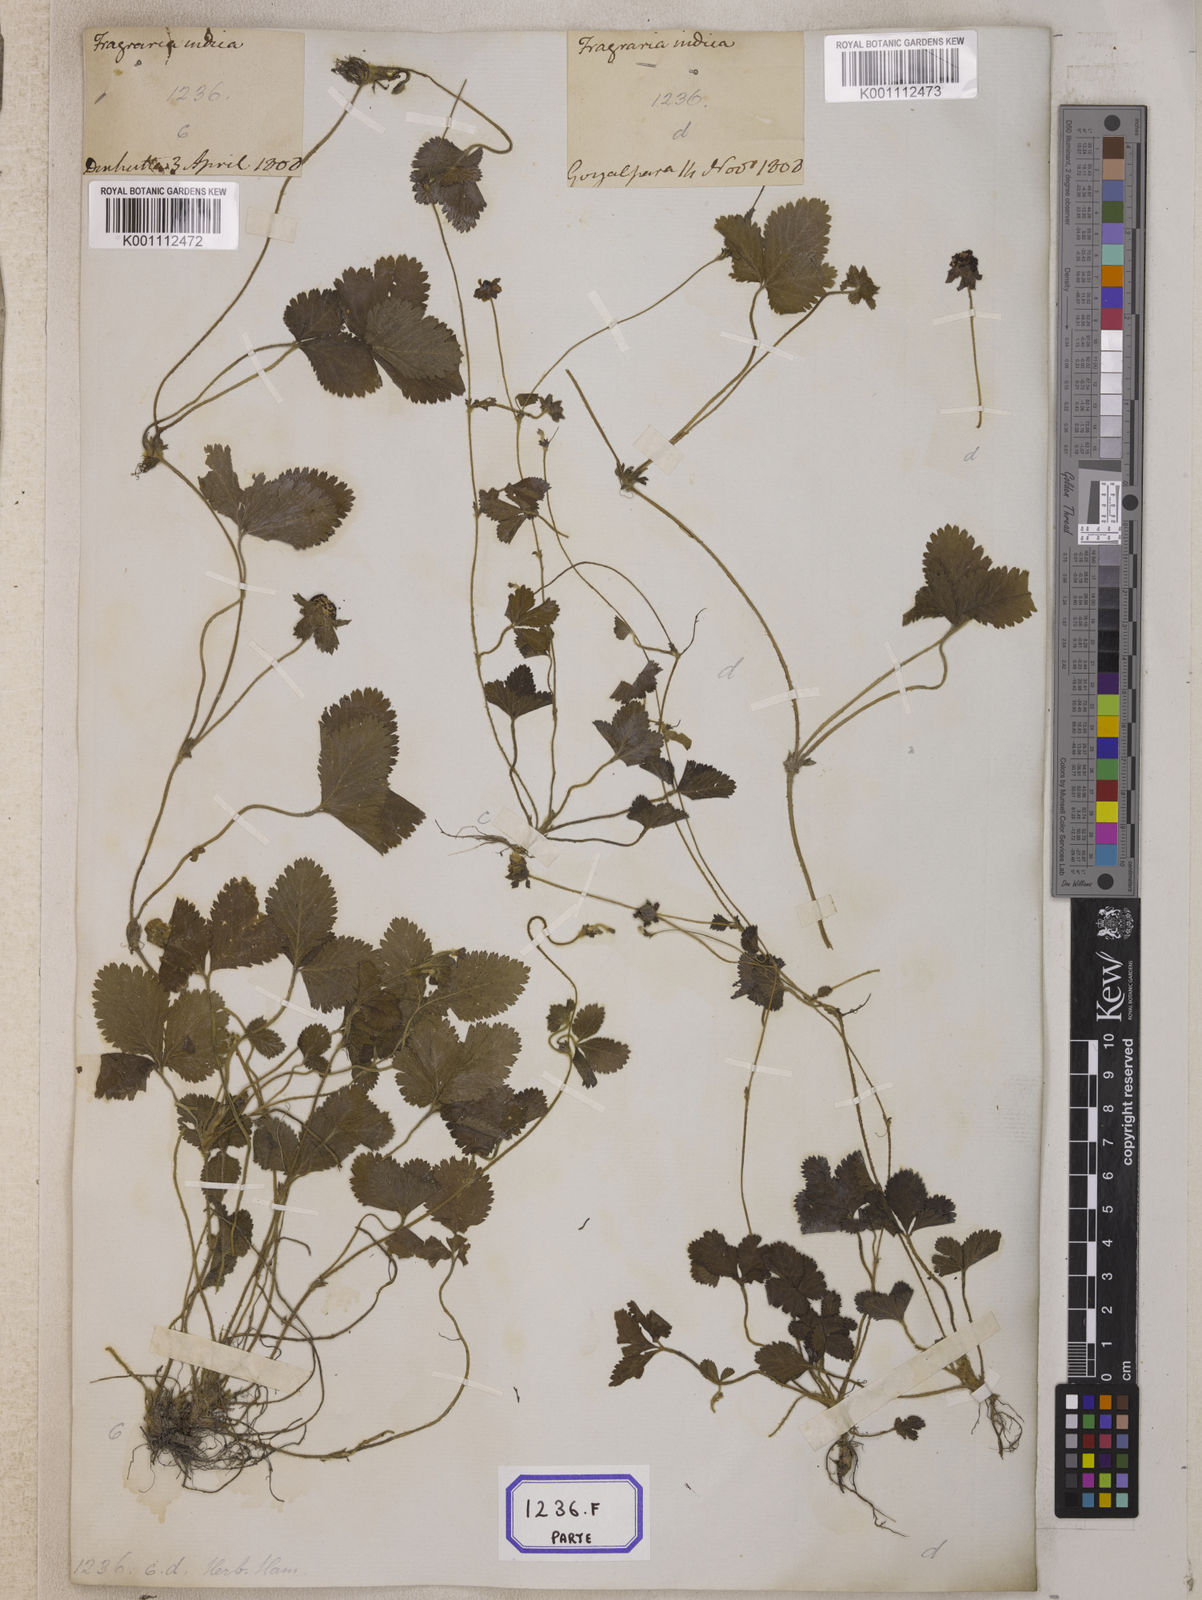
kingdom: Plantae
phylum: Tracheophyta
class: Magnoliopsida
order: Rosales
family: Rosaceae
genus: Potentilla
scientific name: Potentilla indica
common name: Yellow-flowered strawberry
